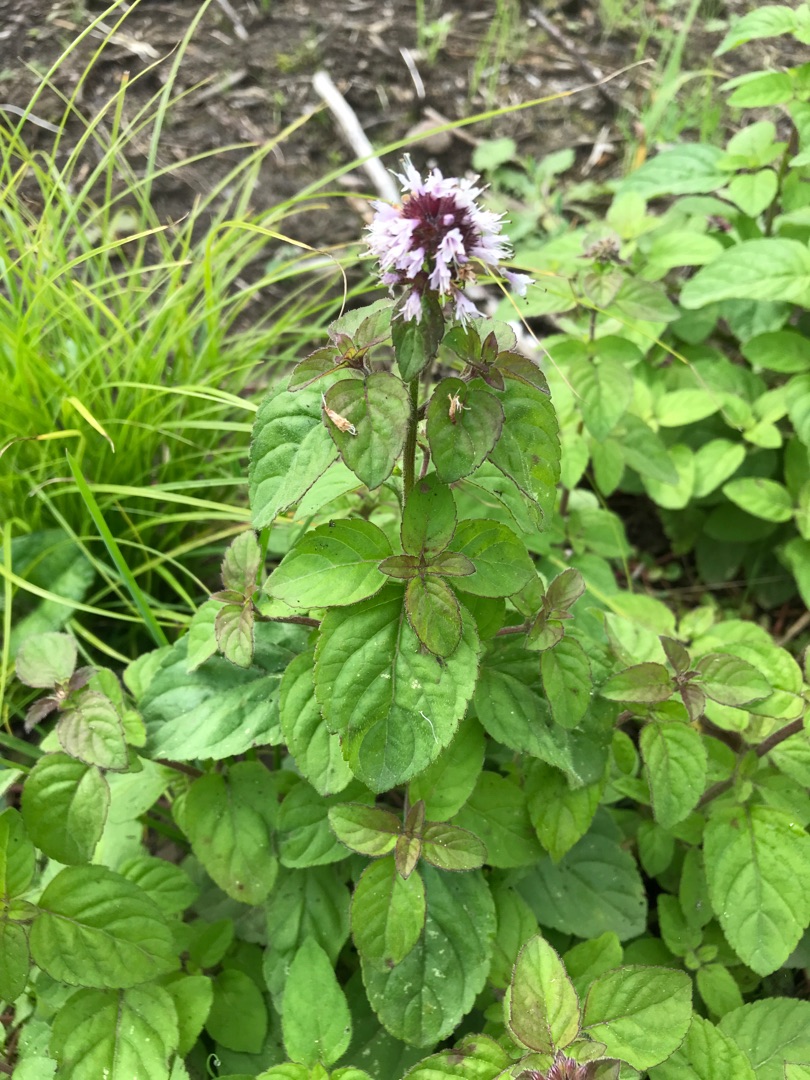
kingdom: Plantae
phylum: Tracheophyta
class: Magnoliopsida
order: Lamiales
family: Lamiaceae
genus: Mentha
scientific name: Mentha aquatica
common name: Vand-mynte
